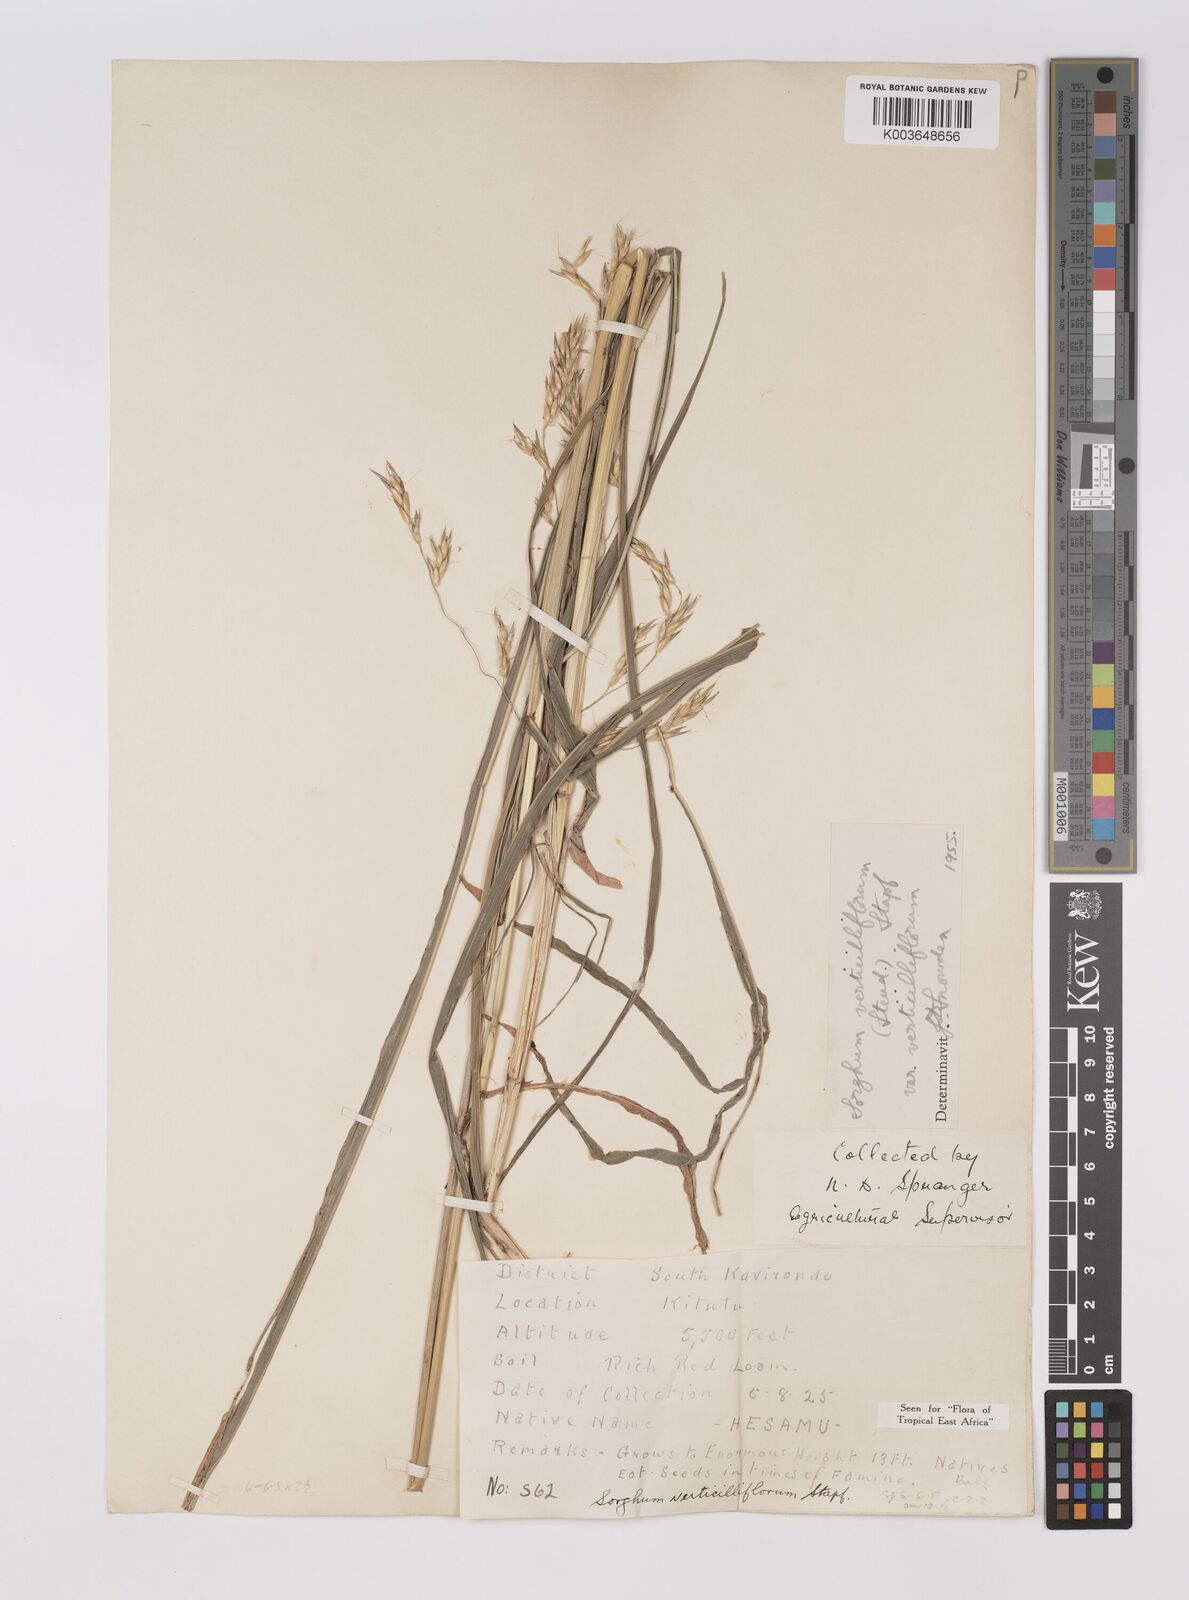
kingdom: Plantae
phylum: Tracheophyta
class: Liliopsida
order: Poales
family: Poaceae
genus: Sorghum
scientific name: Sorghum arundinaceum
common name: Sorghum
